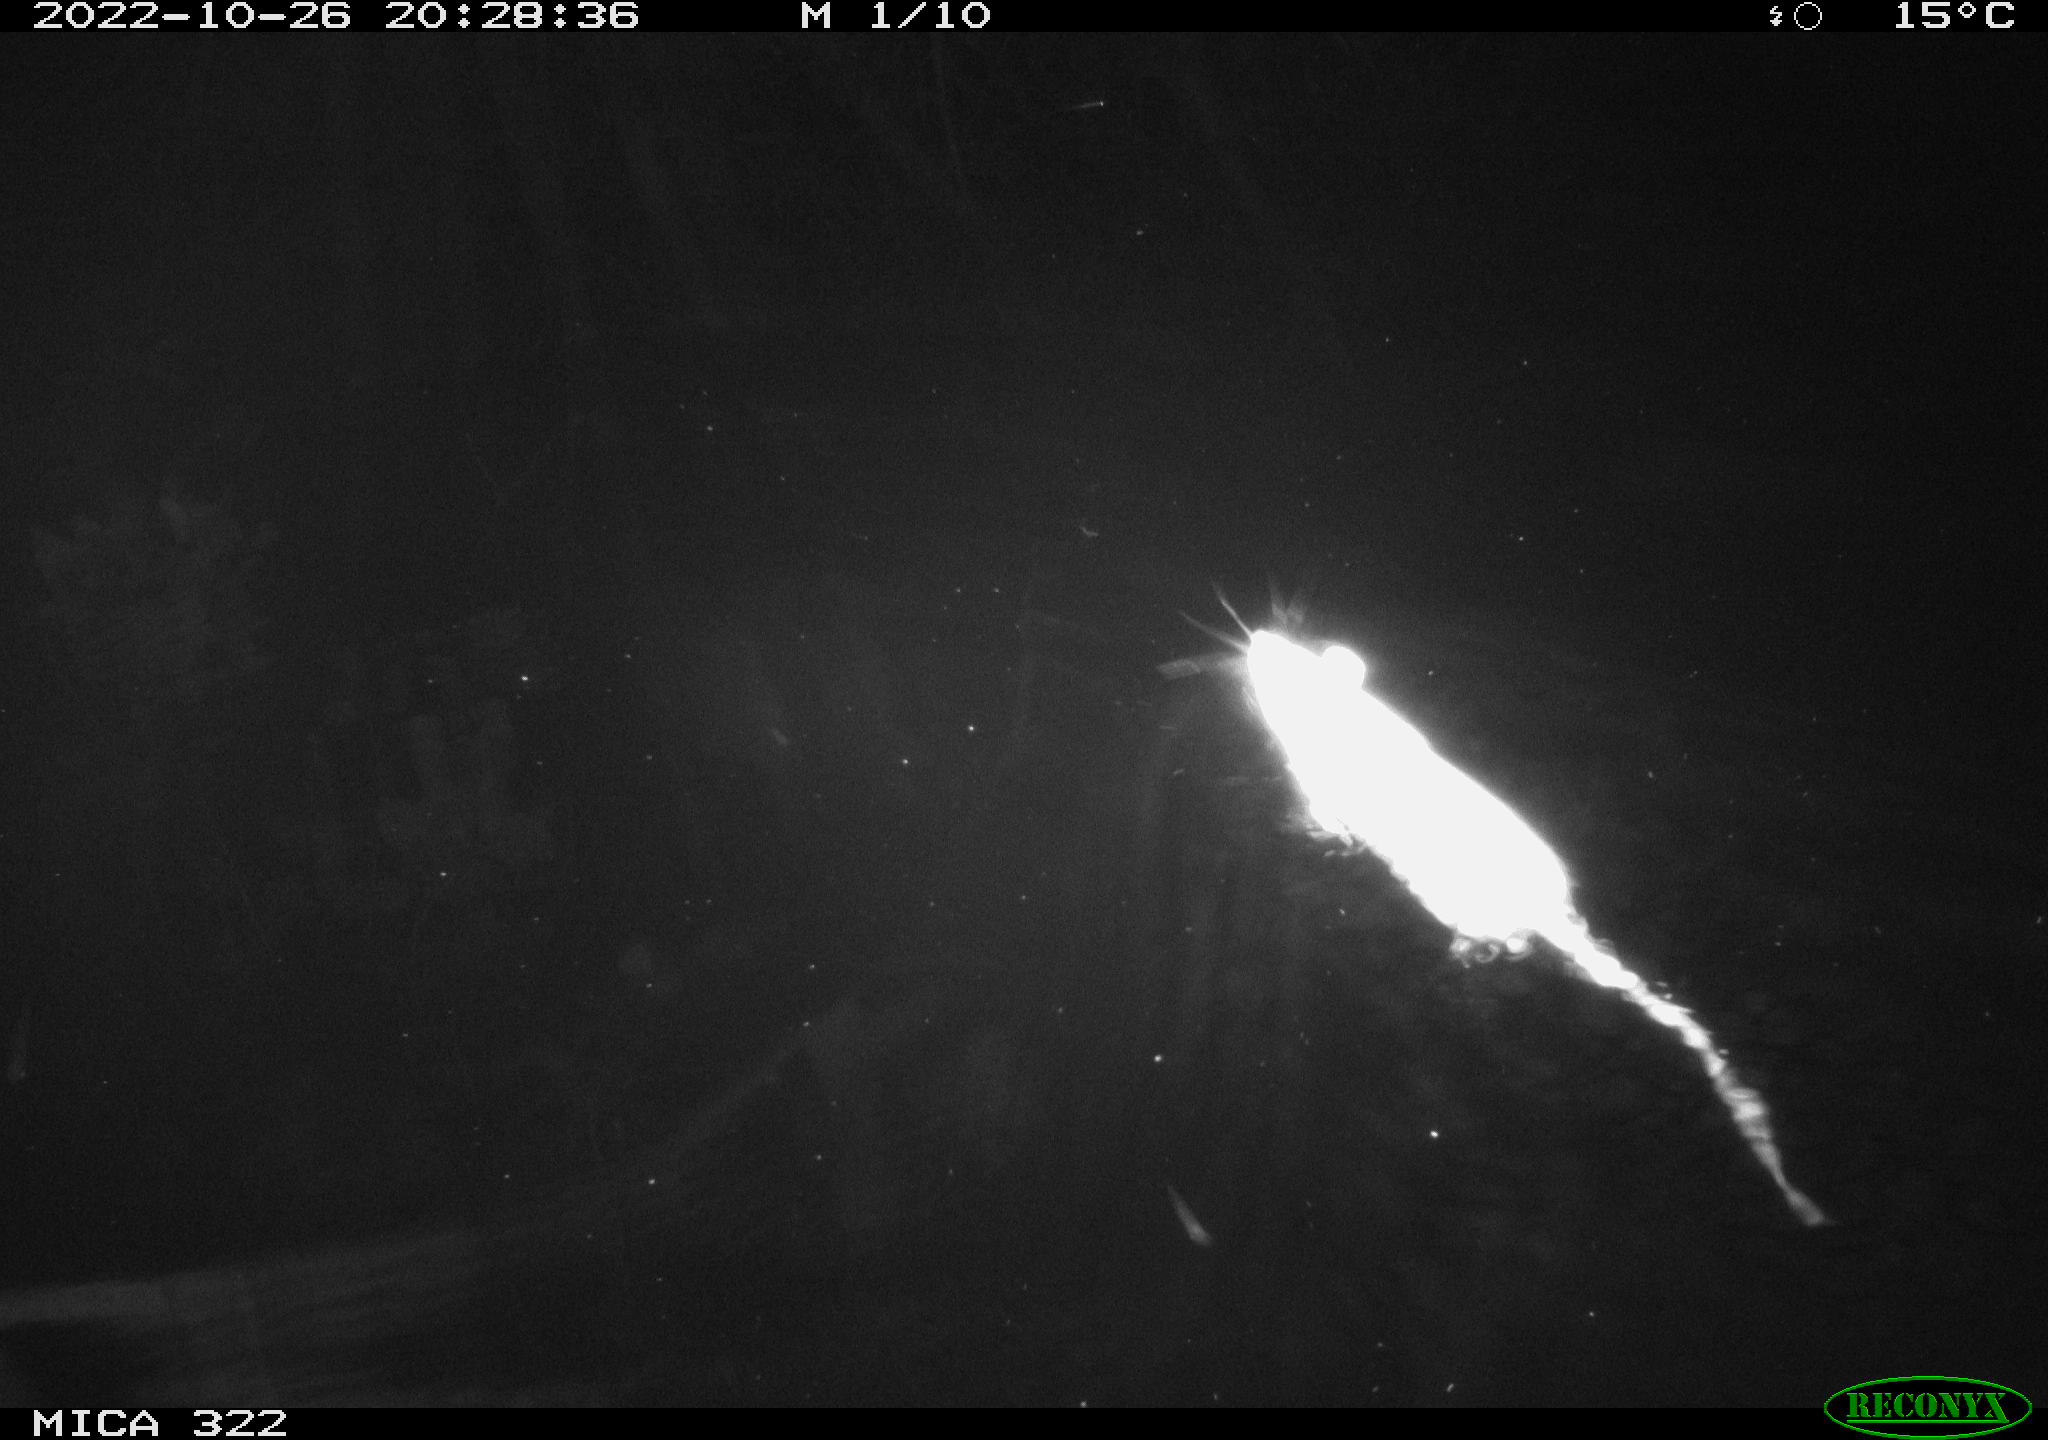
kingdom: Animalia
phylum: Chordata
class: Mammalia
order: Rodentia
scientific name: Rodentia
